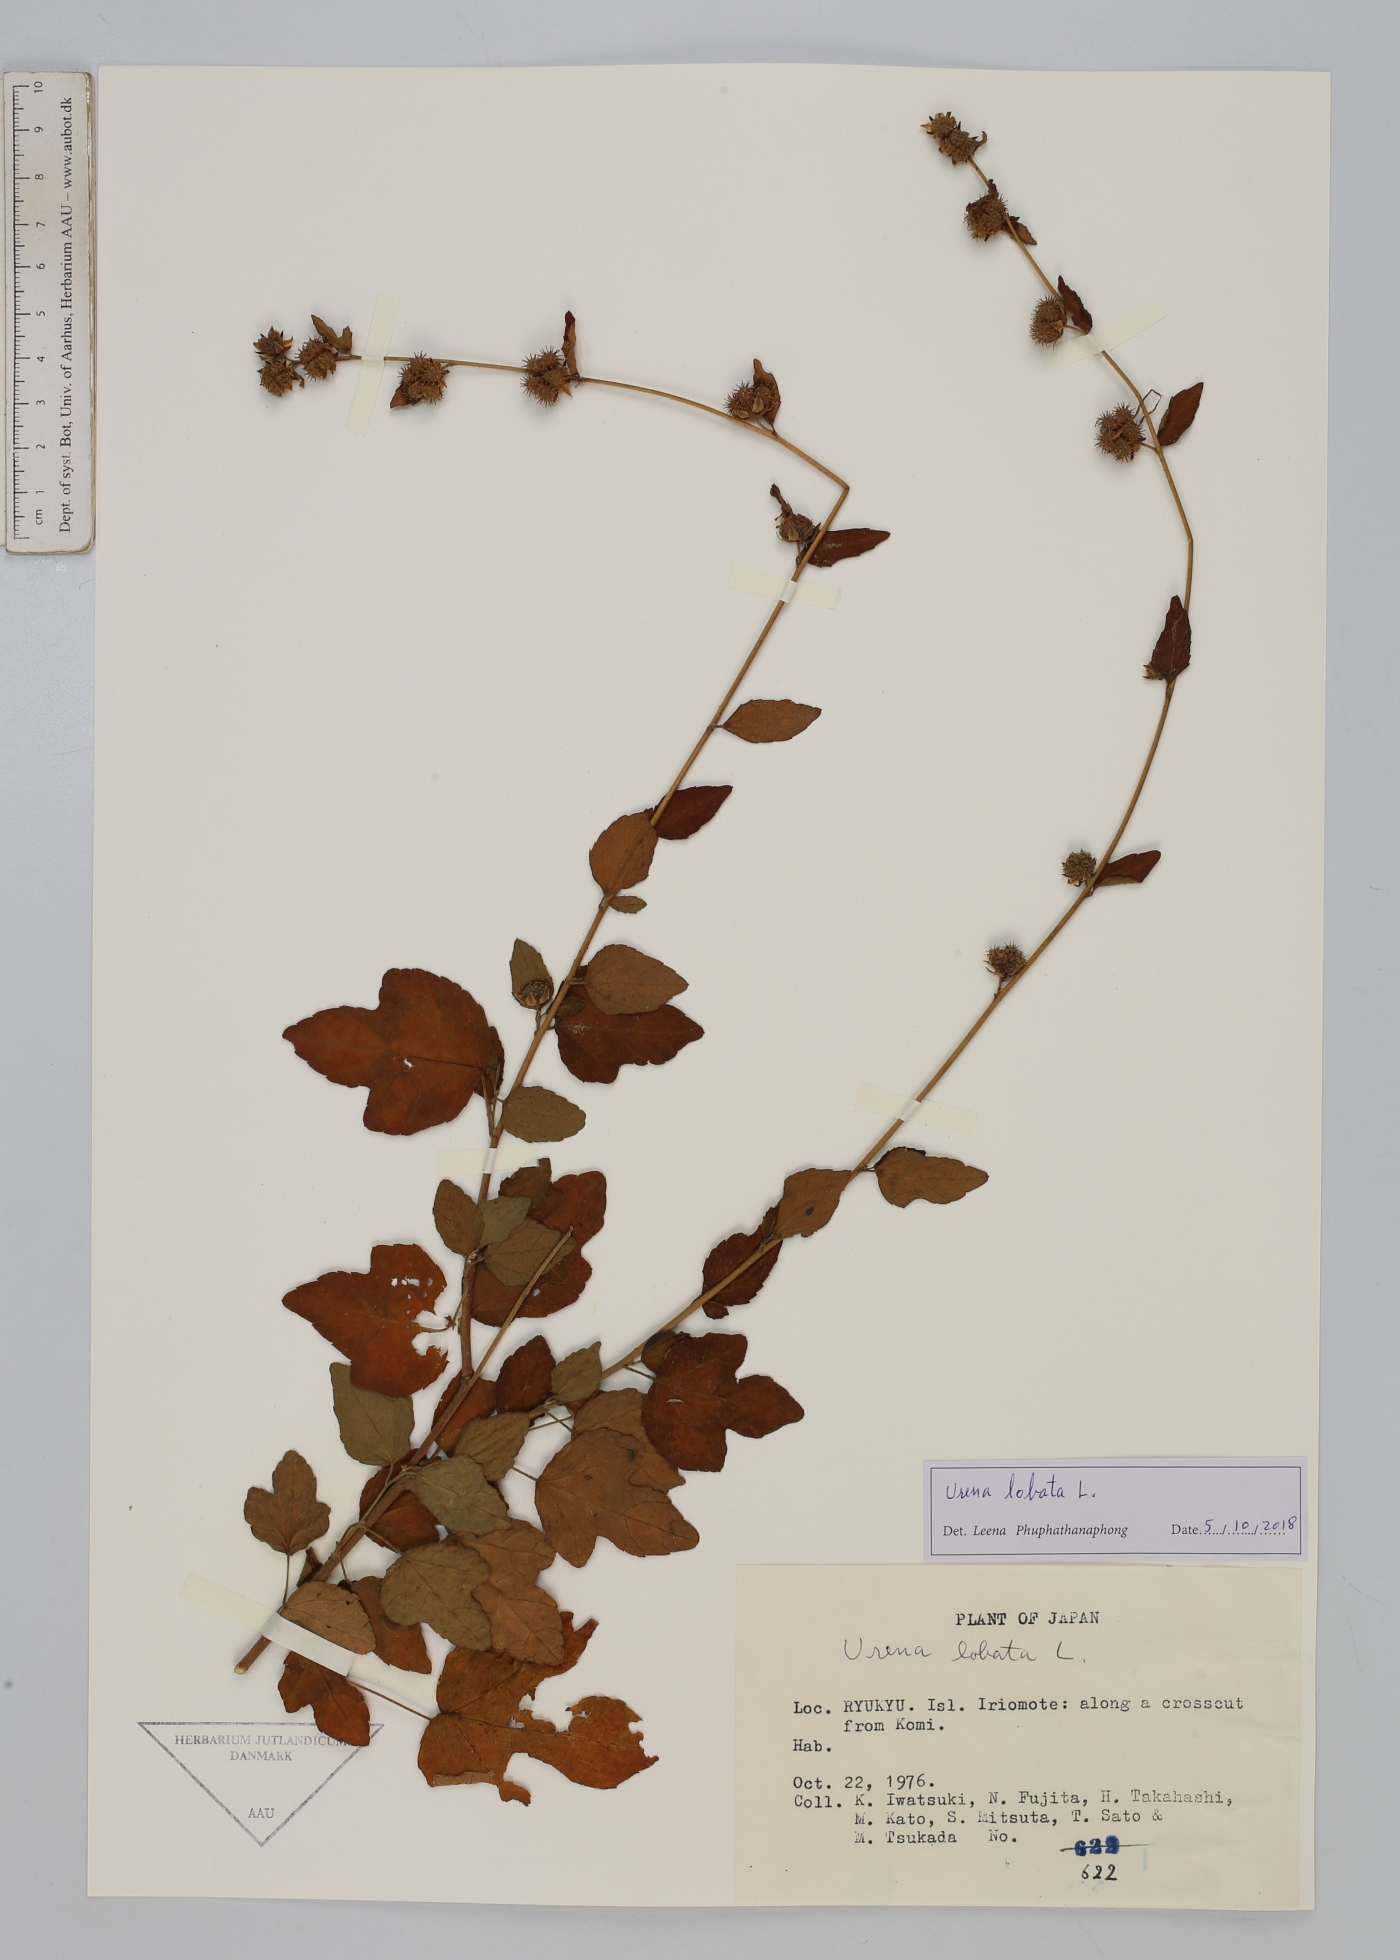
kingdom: Plantae
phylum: Tracheophyta
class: Magnoliopsida
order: Malvales
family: Malvaceae
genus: Urena
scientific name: Urena lobata
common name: Caesarweed
